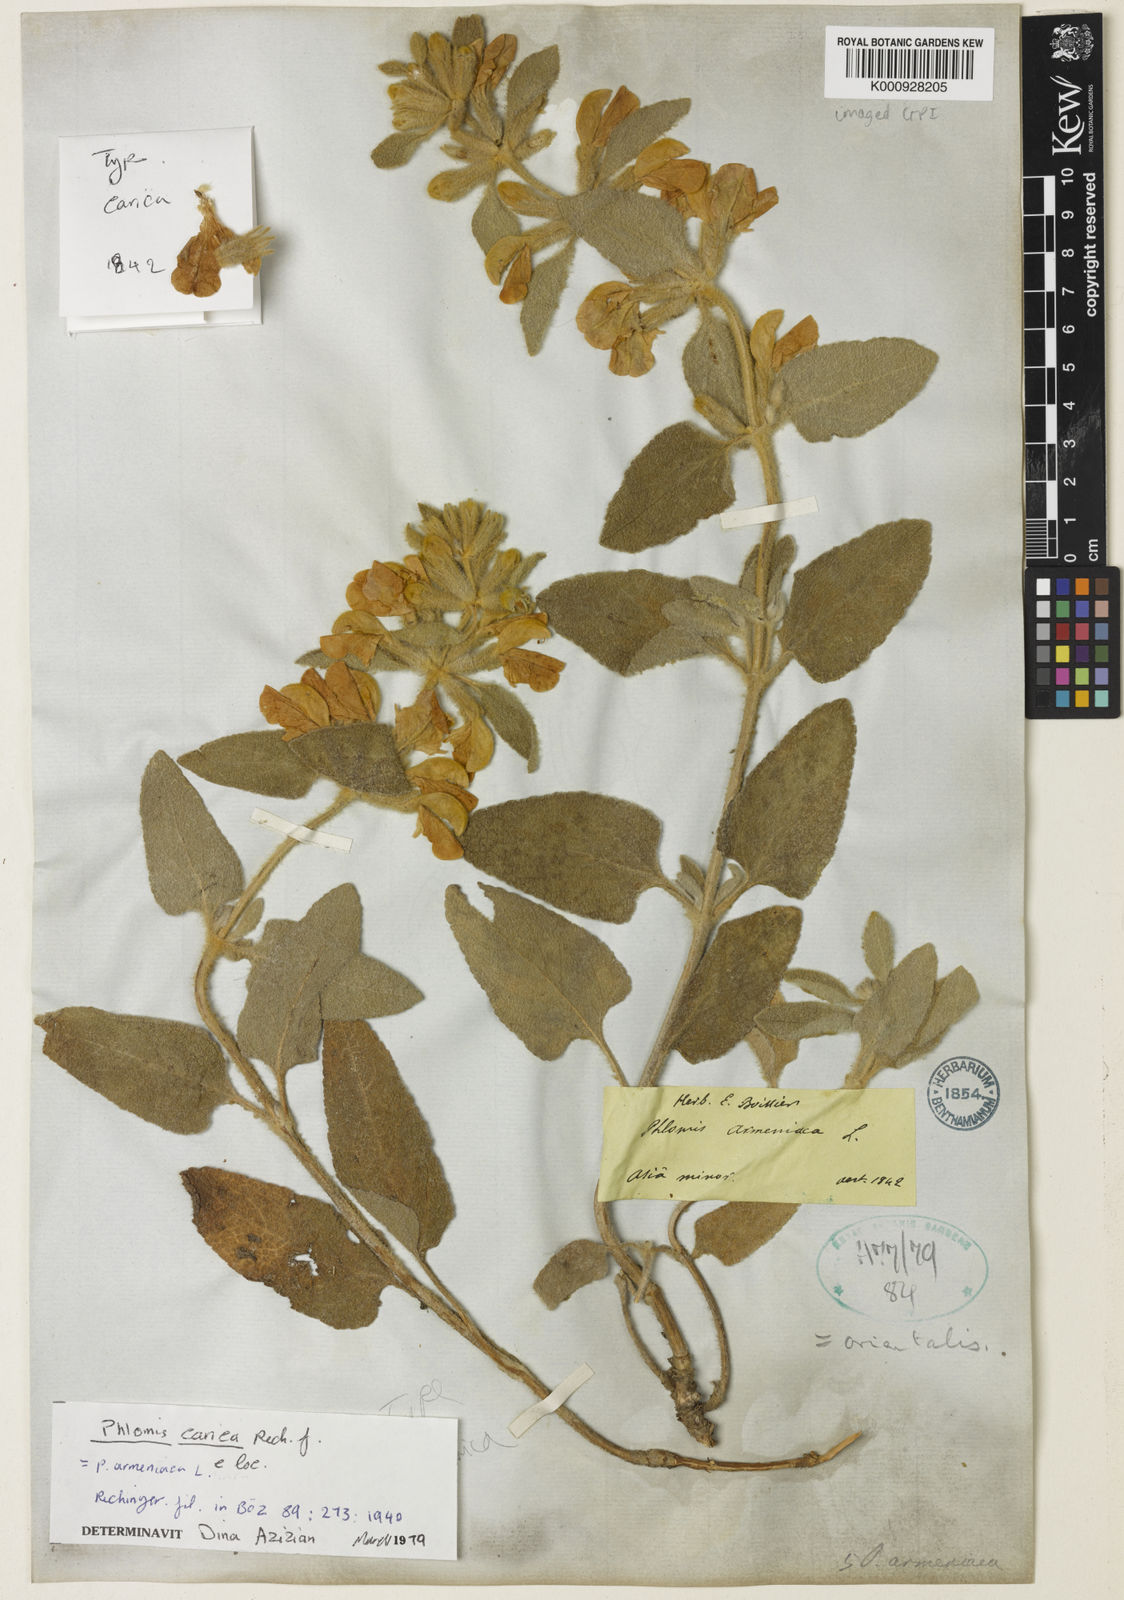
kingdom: Plantae
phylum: Tracheophyta
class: Magnoliopsida
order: Lamiales
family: Lamiaceae
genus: Phlomis
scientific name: Phlomis carica
